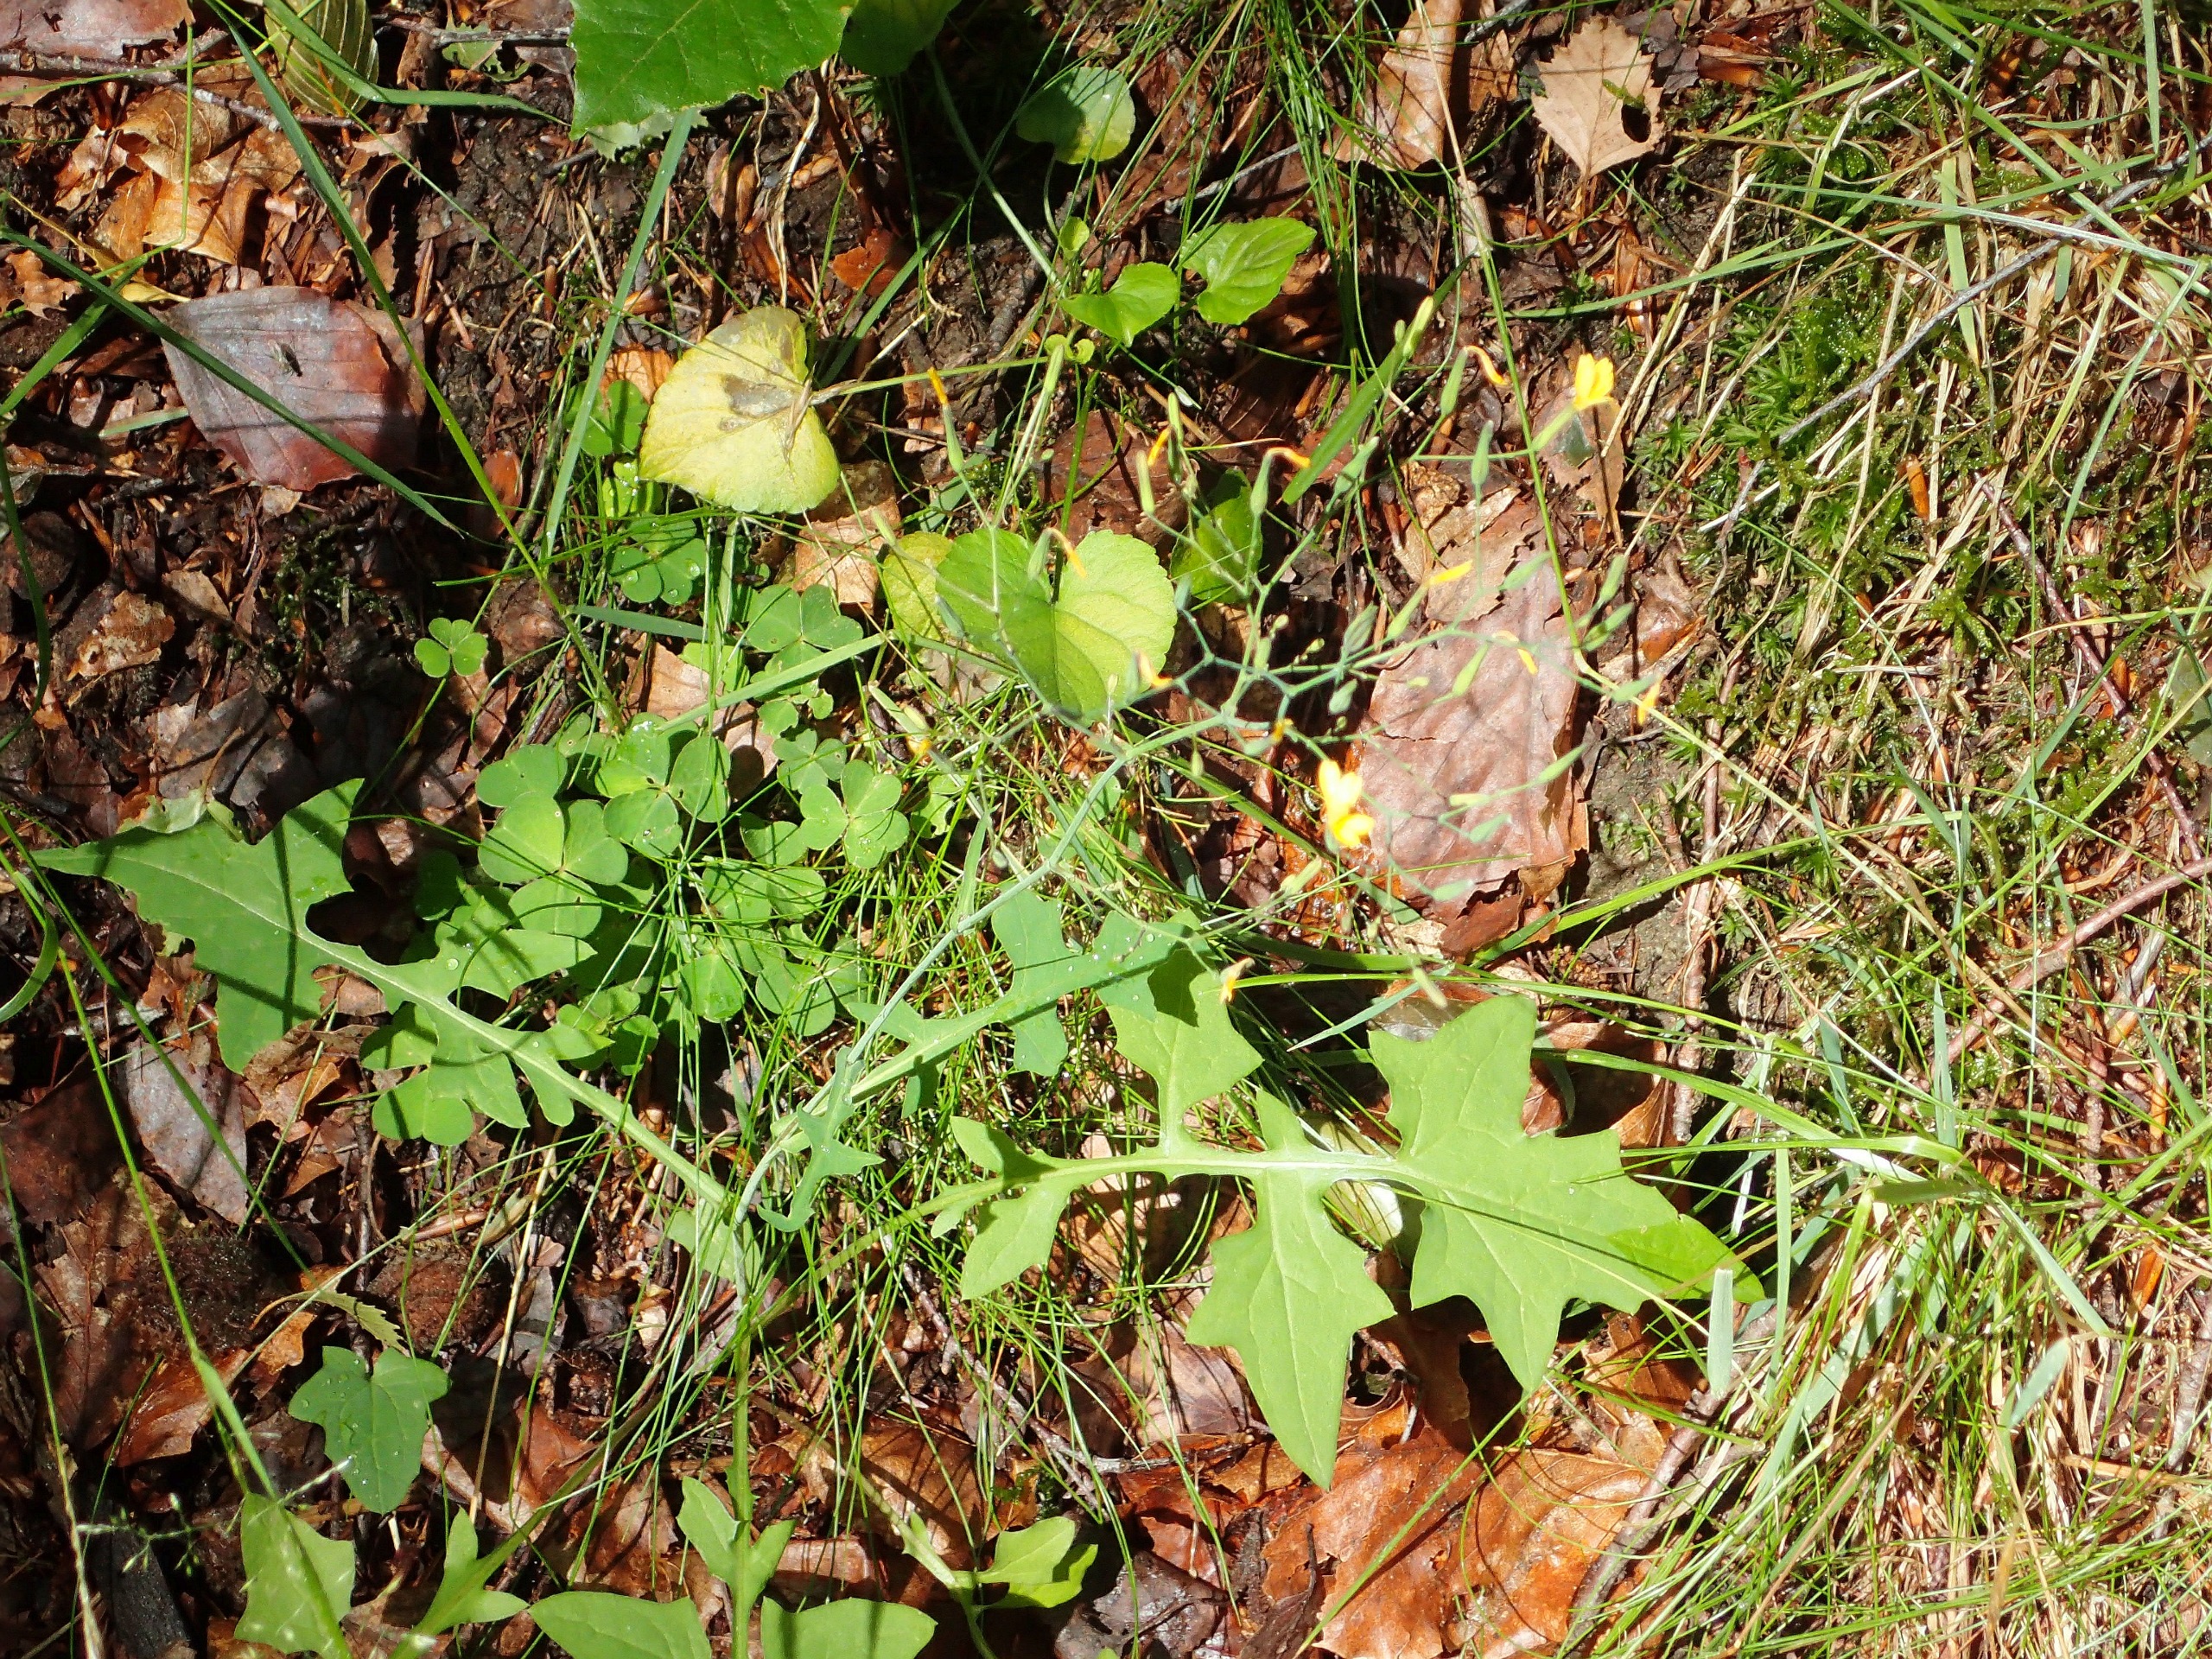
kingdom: Plantae
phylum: Tracheophyta
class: Magnoliopsida
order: Oxalidales
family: Oxalidaceae
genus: Oxalis
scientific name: Oxalis acetosella
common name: Skovsyre
